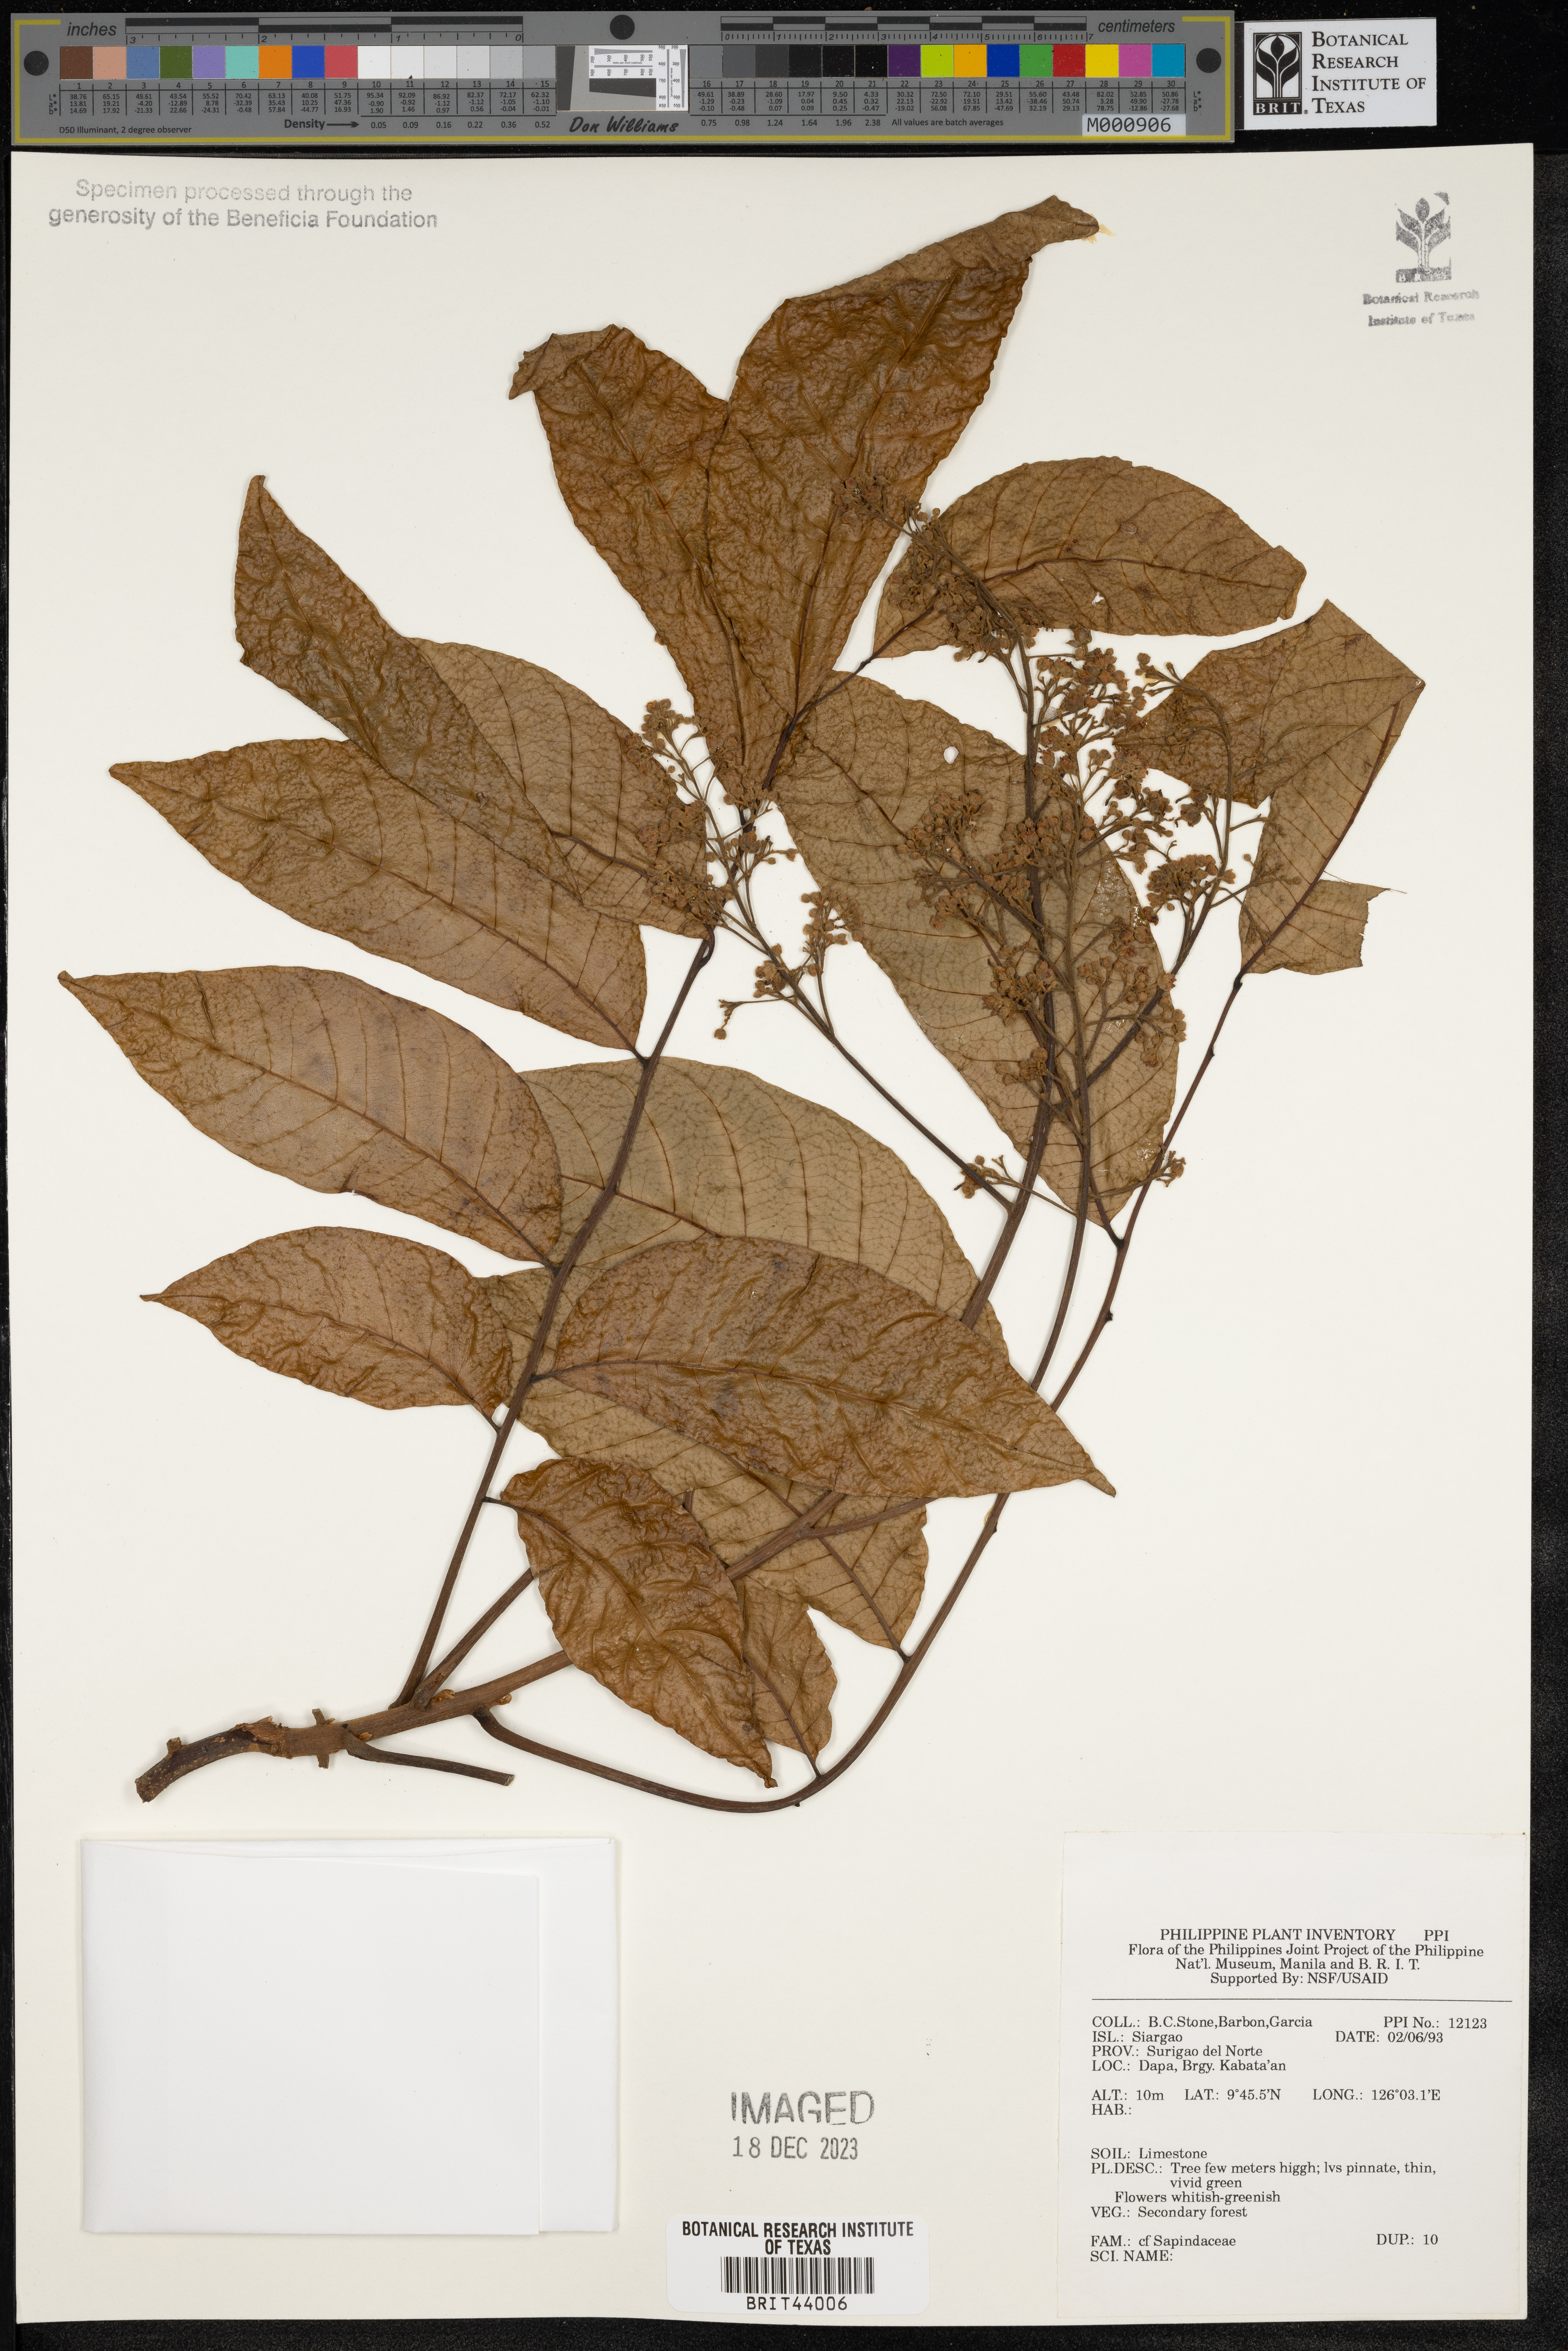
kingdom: Plantae
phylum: Tracheophyta
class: Magnoliopsida
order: Sapindales
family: Sapindaceae
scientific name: Sapindaceae
